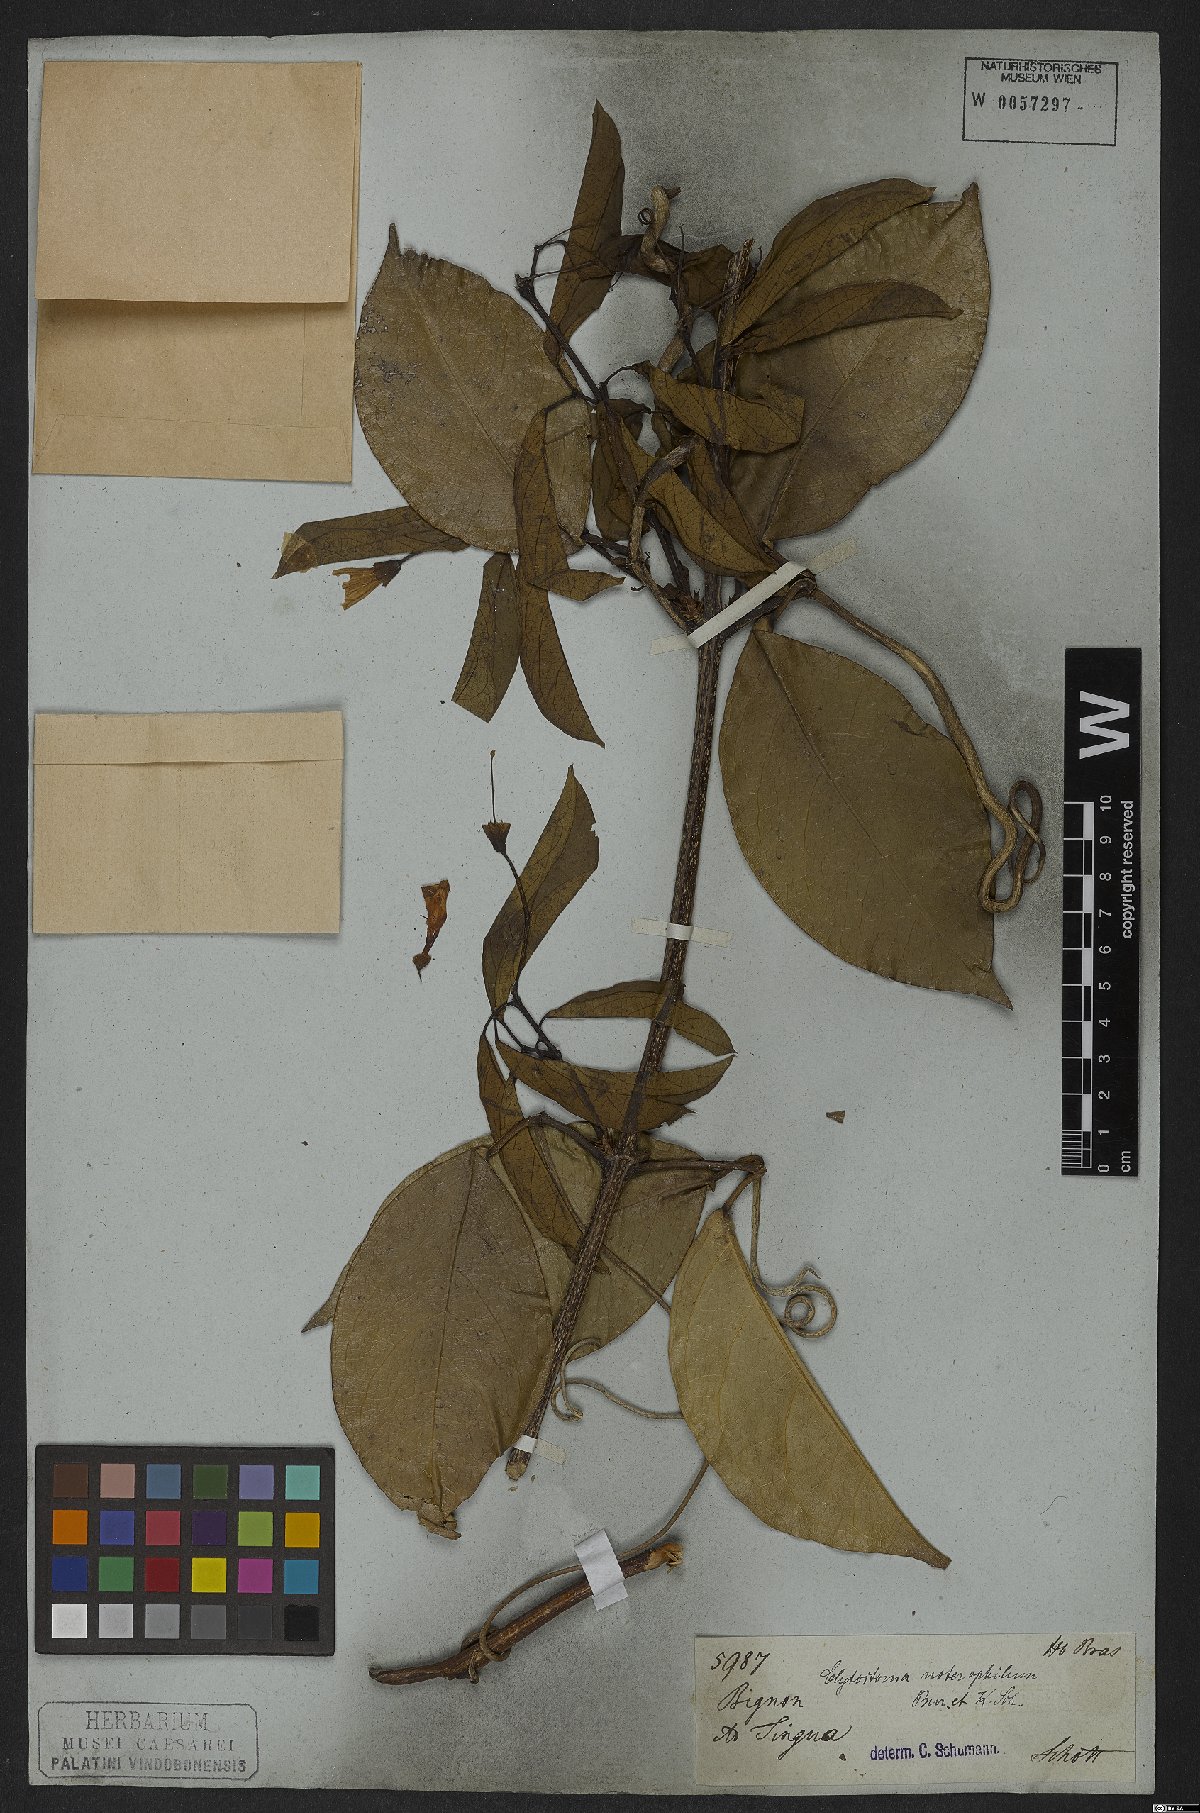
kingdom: Plantae
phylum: Tracheophyta
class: Magnoliopsida
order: Lamiales
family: Bignoniaceae
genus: Bignonia
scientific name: Bignonia noterophila
